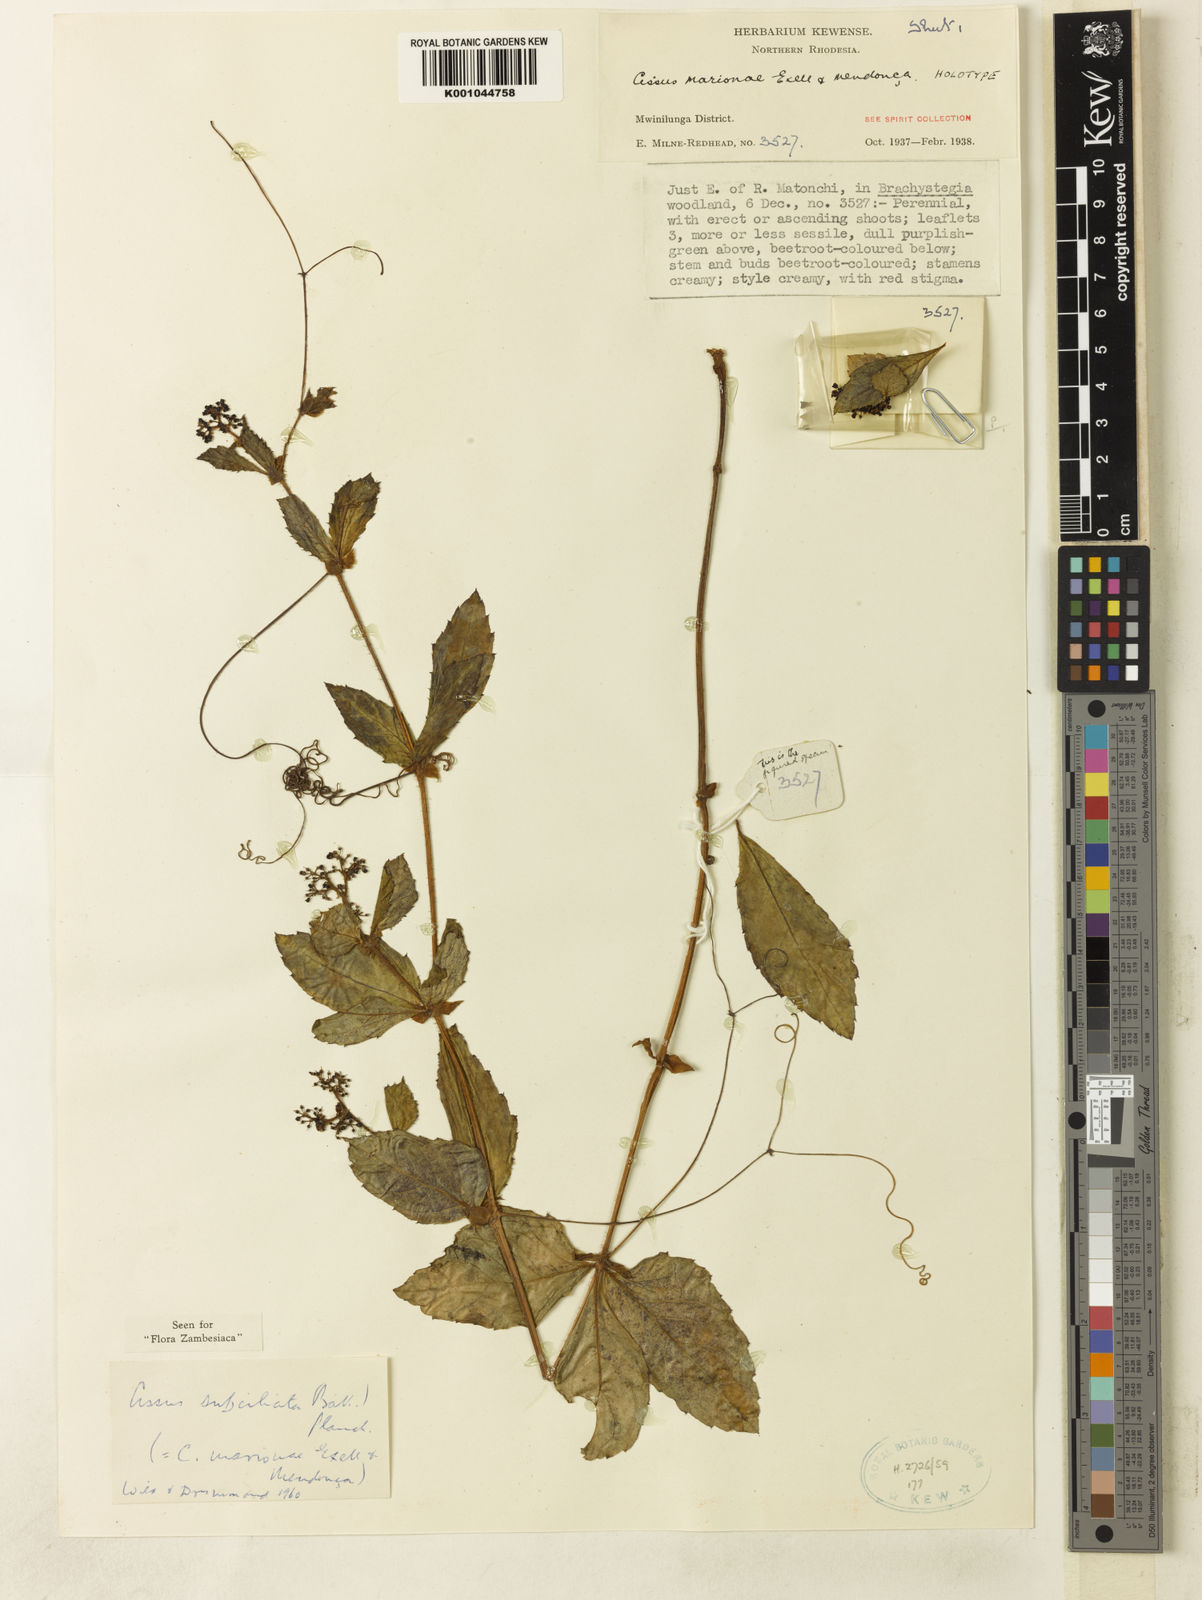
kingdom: Plantae
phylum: Tracheophyta
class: Magnoliopsida
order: Vitales
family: Vitaceae
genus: Cyphostemma
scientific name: Cyphostemma
